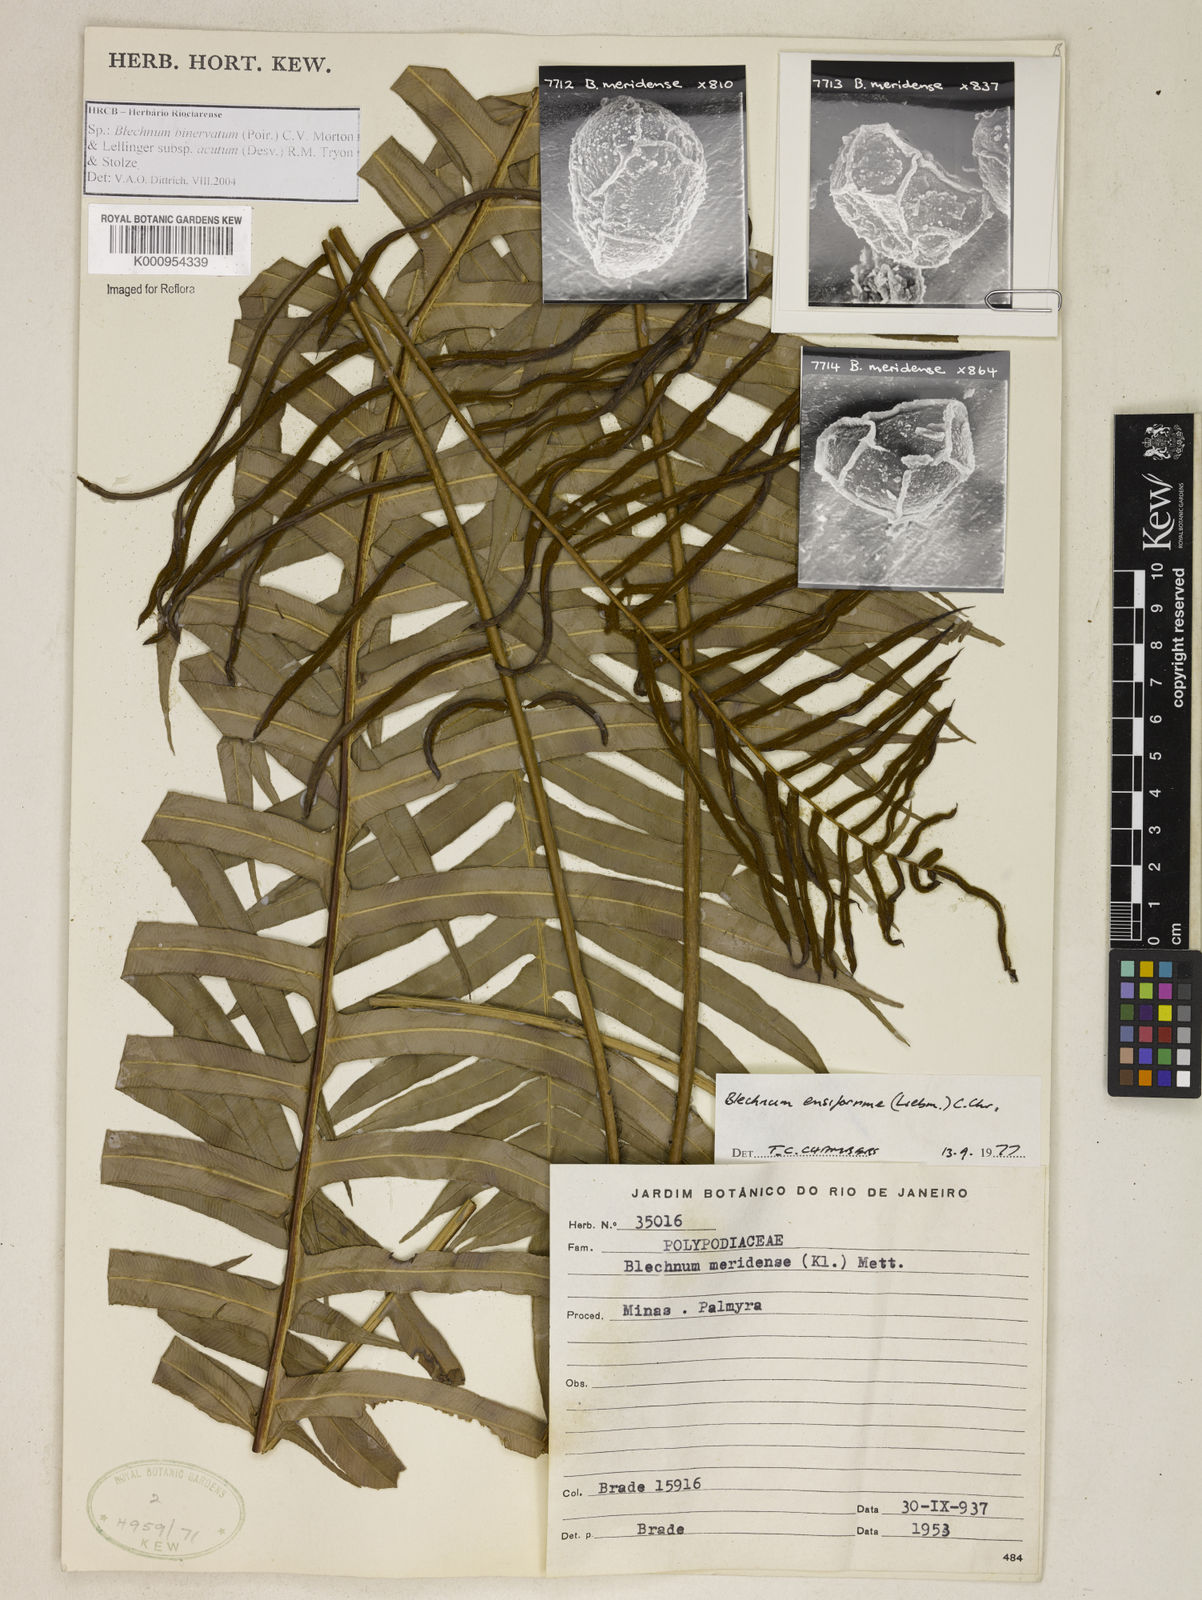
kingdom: Plantae
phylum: Tracheophyta
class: Polypodiopsida
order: Polypodiales
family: Blechnaceae
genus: Lomaridium
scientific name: Lomaridium ensiforme
